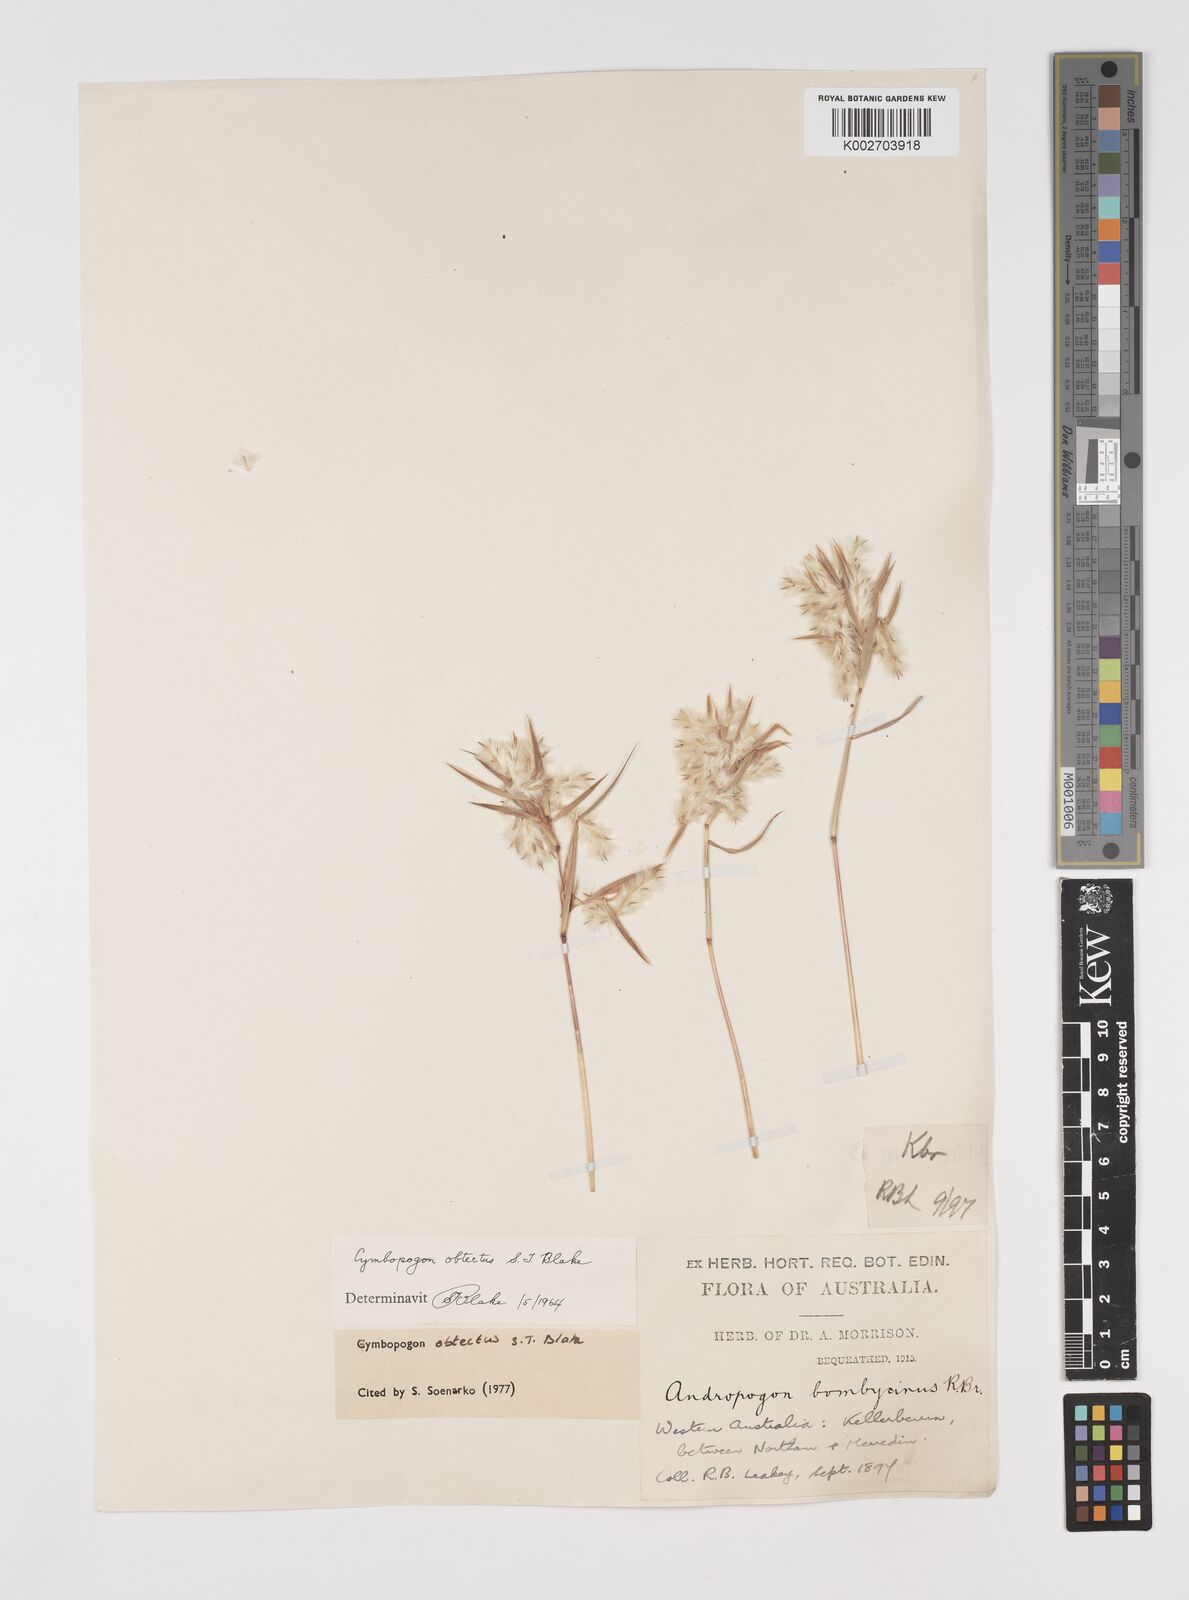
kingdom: Plantae
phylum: Tracheophyta
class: Liliopsida
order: Poales
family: Poaceae
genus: Cymbopogon
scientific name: Cymbopogon obtectus
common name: Silky heads
